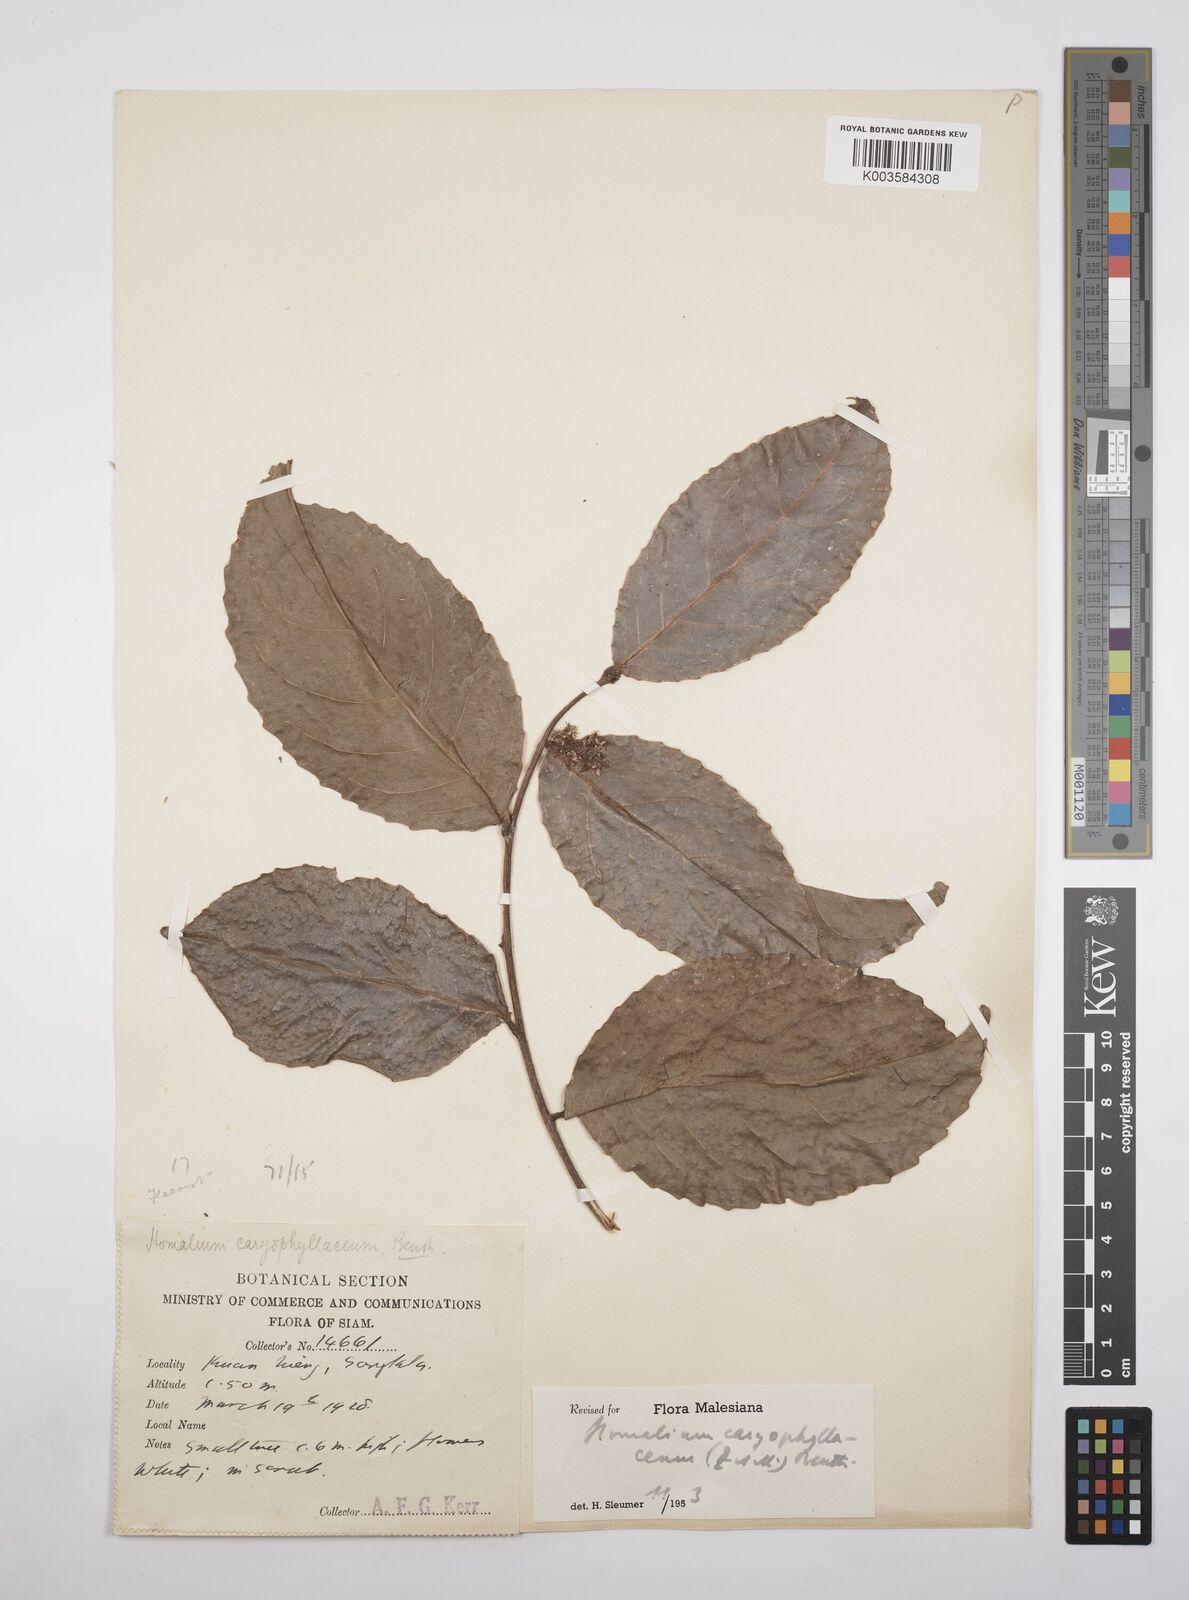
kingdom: Plantae
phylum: Tracheophyta
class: Magnoliopsida
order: Malpighiales
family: Salicaceae
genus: Homalium
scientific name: Homalium caryophyllaceum
